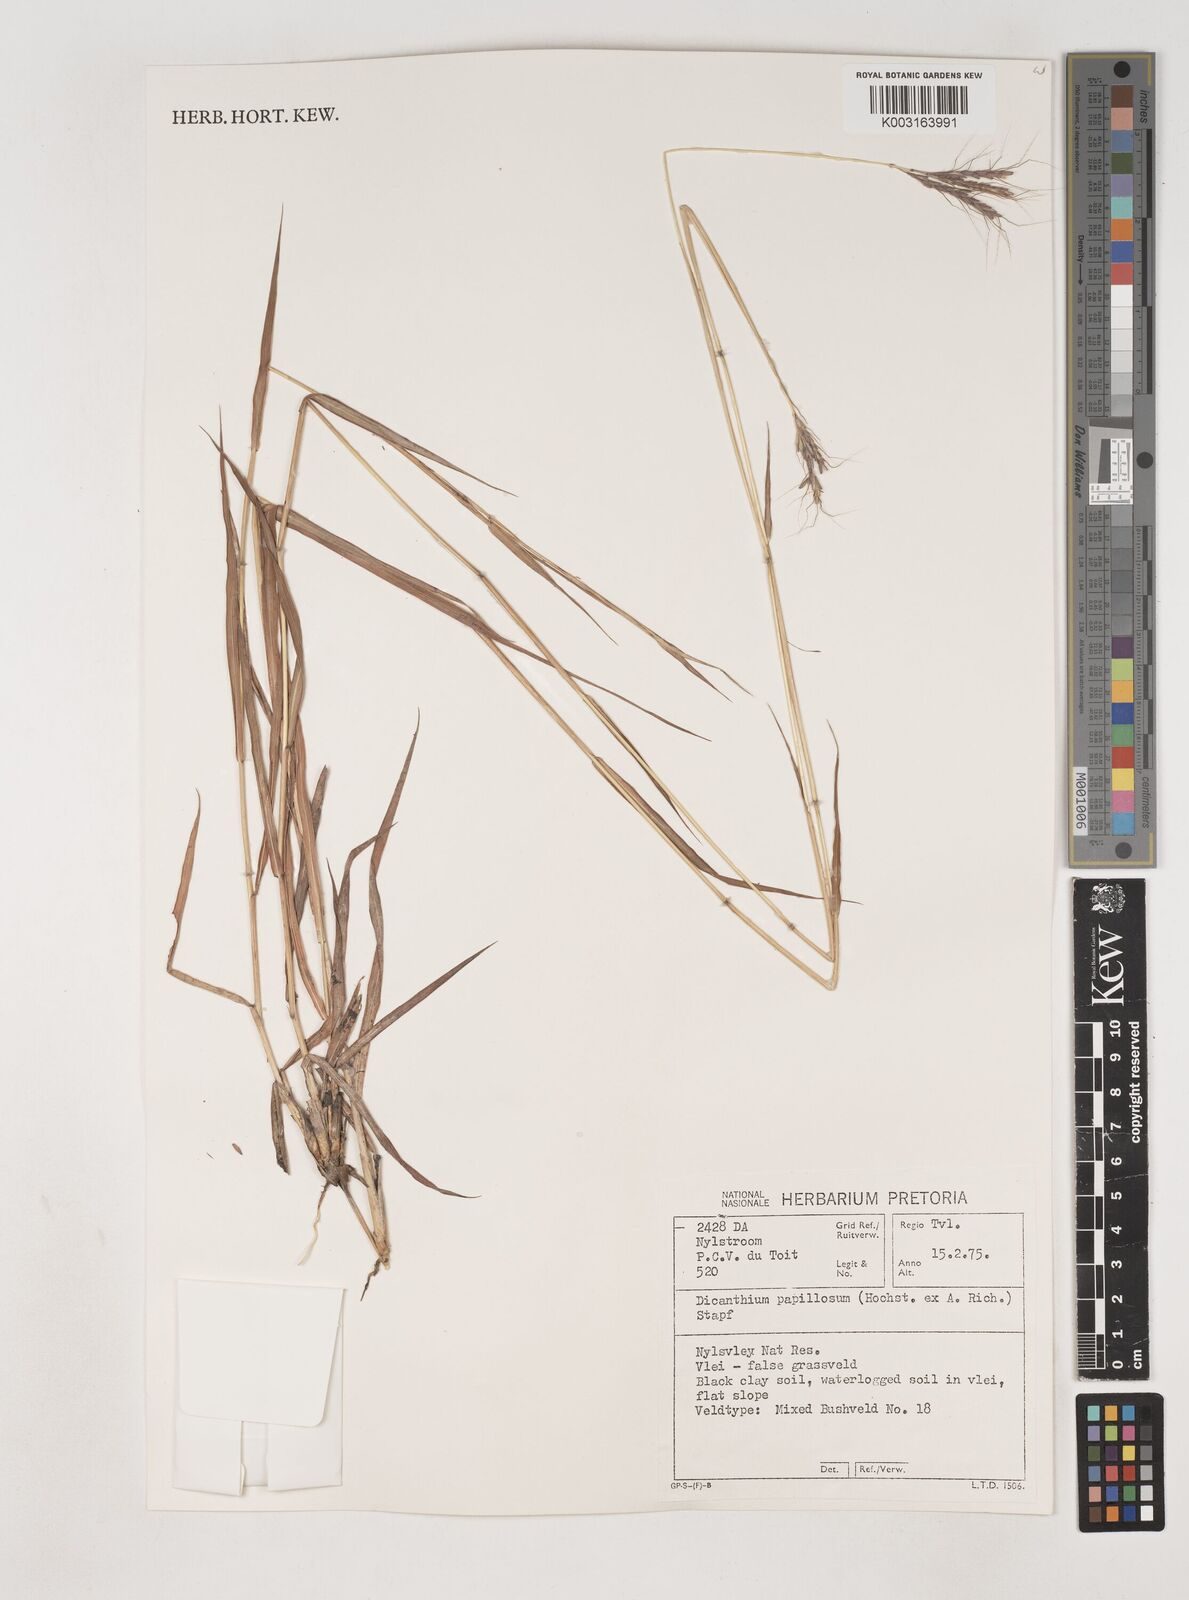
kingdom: Plantae
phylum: Tracheophyta
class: Liliopsida
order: Poales
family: Poaceae
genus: Dichanthium
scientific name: Dichanthium annulatum
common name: Kleberg's bluestem
